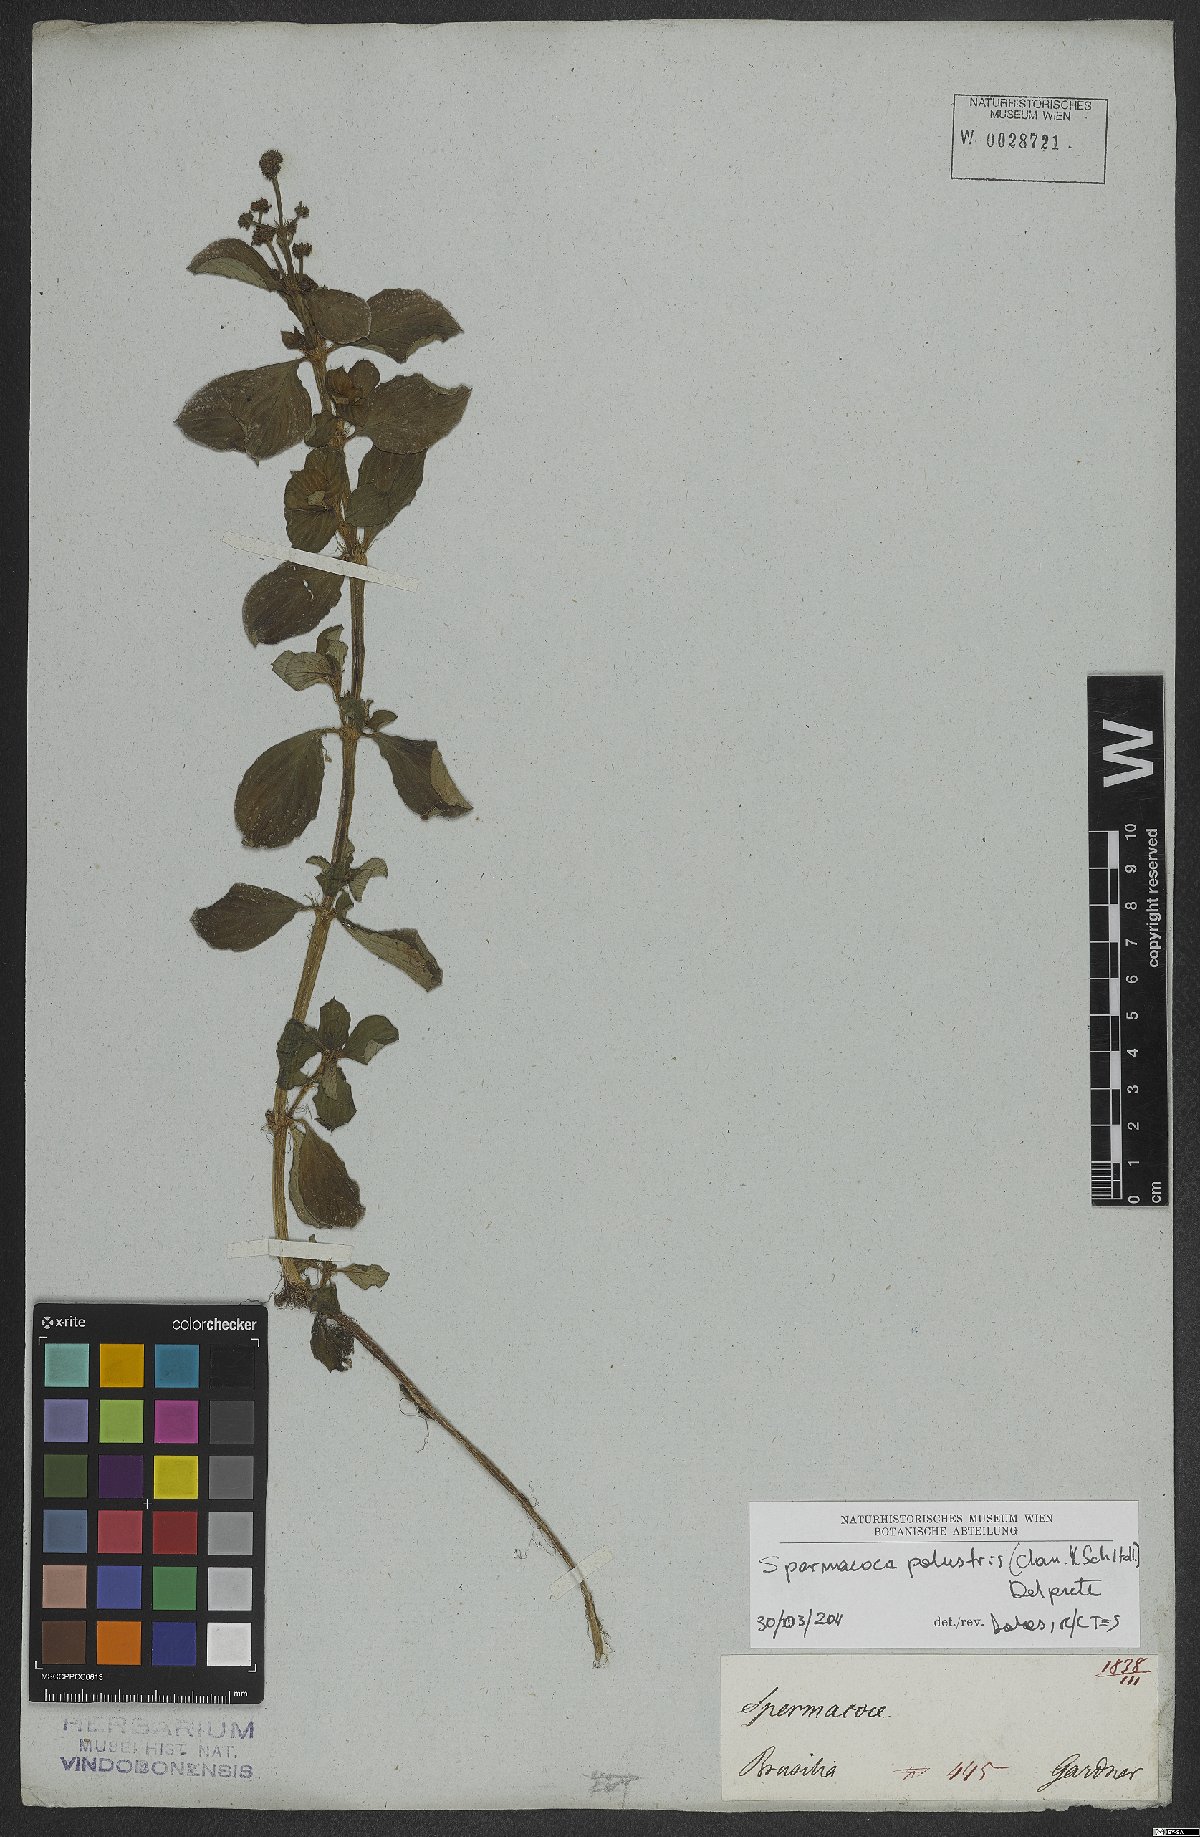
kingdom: Plantae
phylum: Tracheophyta
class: Magnoliopsida
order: Gentianales
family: Rubiaceae
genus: Galianthe
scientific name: Galianthe palustris
